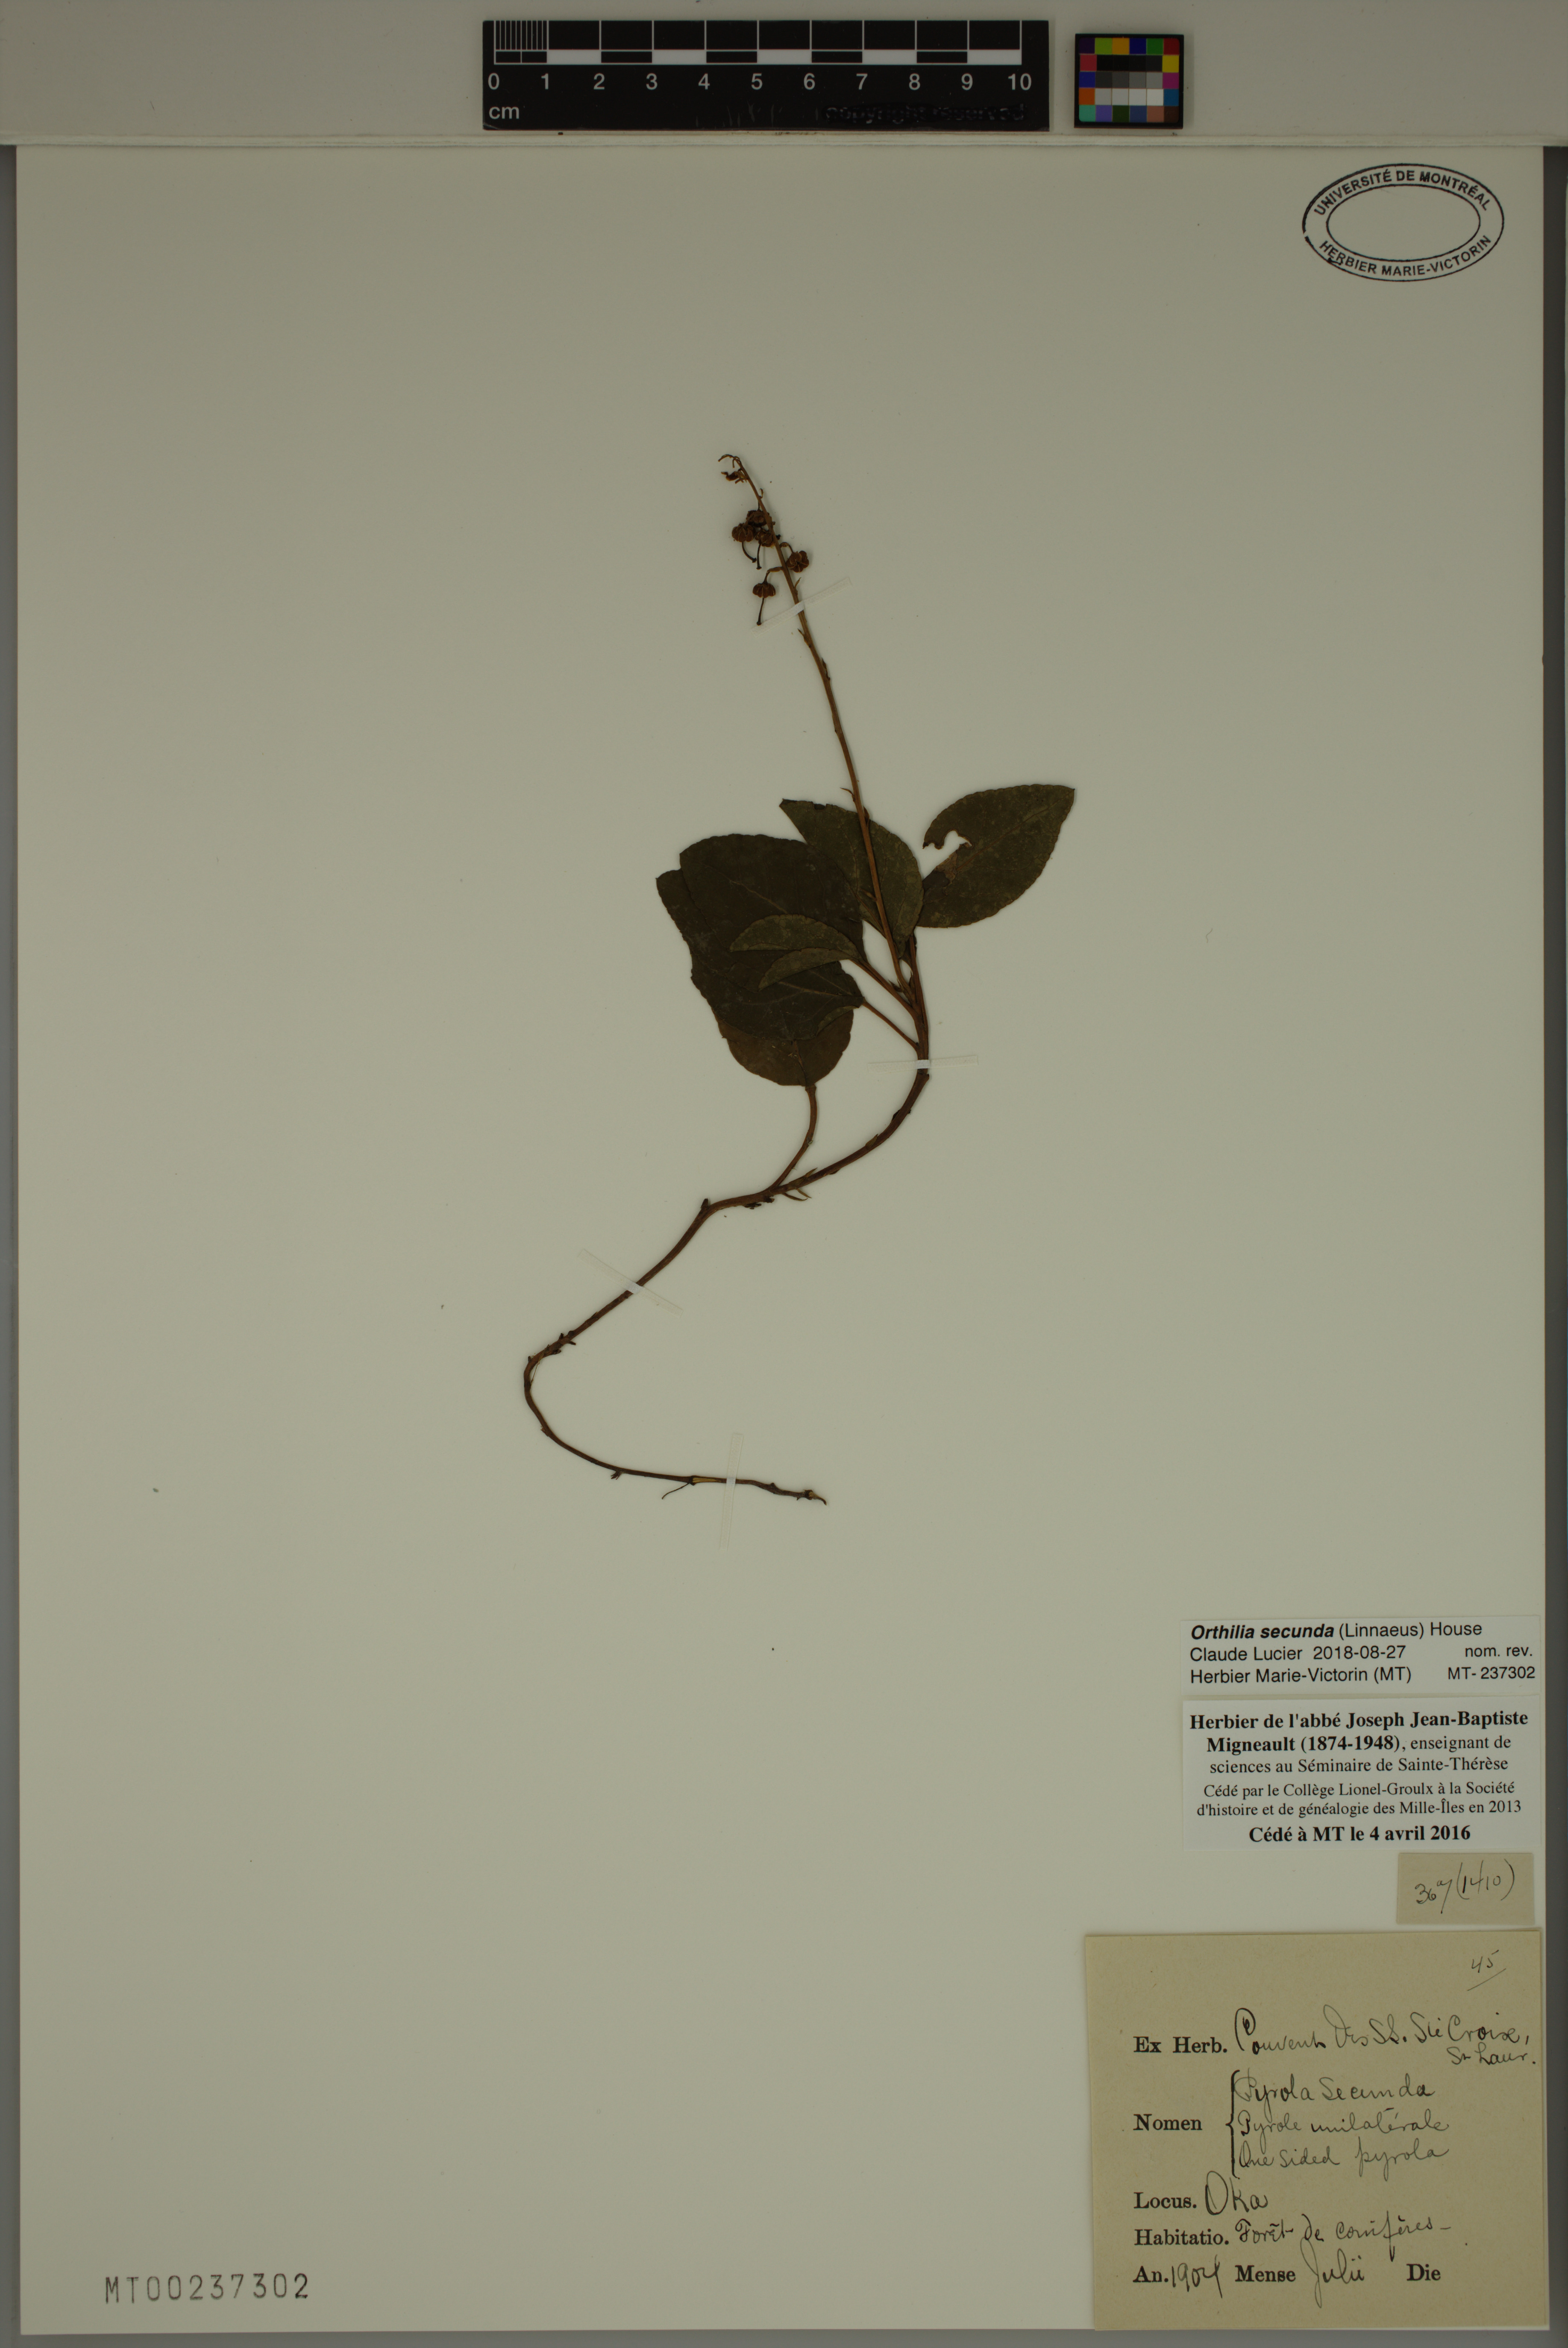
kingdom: Plantae
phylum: Tracheophyta
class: Magnoliopsida
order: Ericales
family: Ericaceae
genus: Orthilia
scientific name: Orthilia secunda
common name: One-sided orthilia
